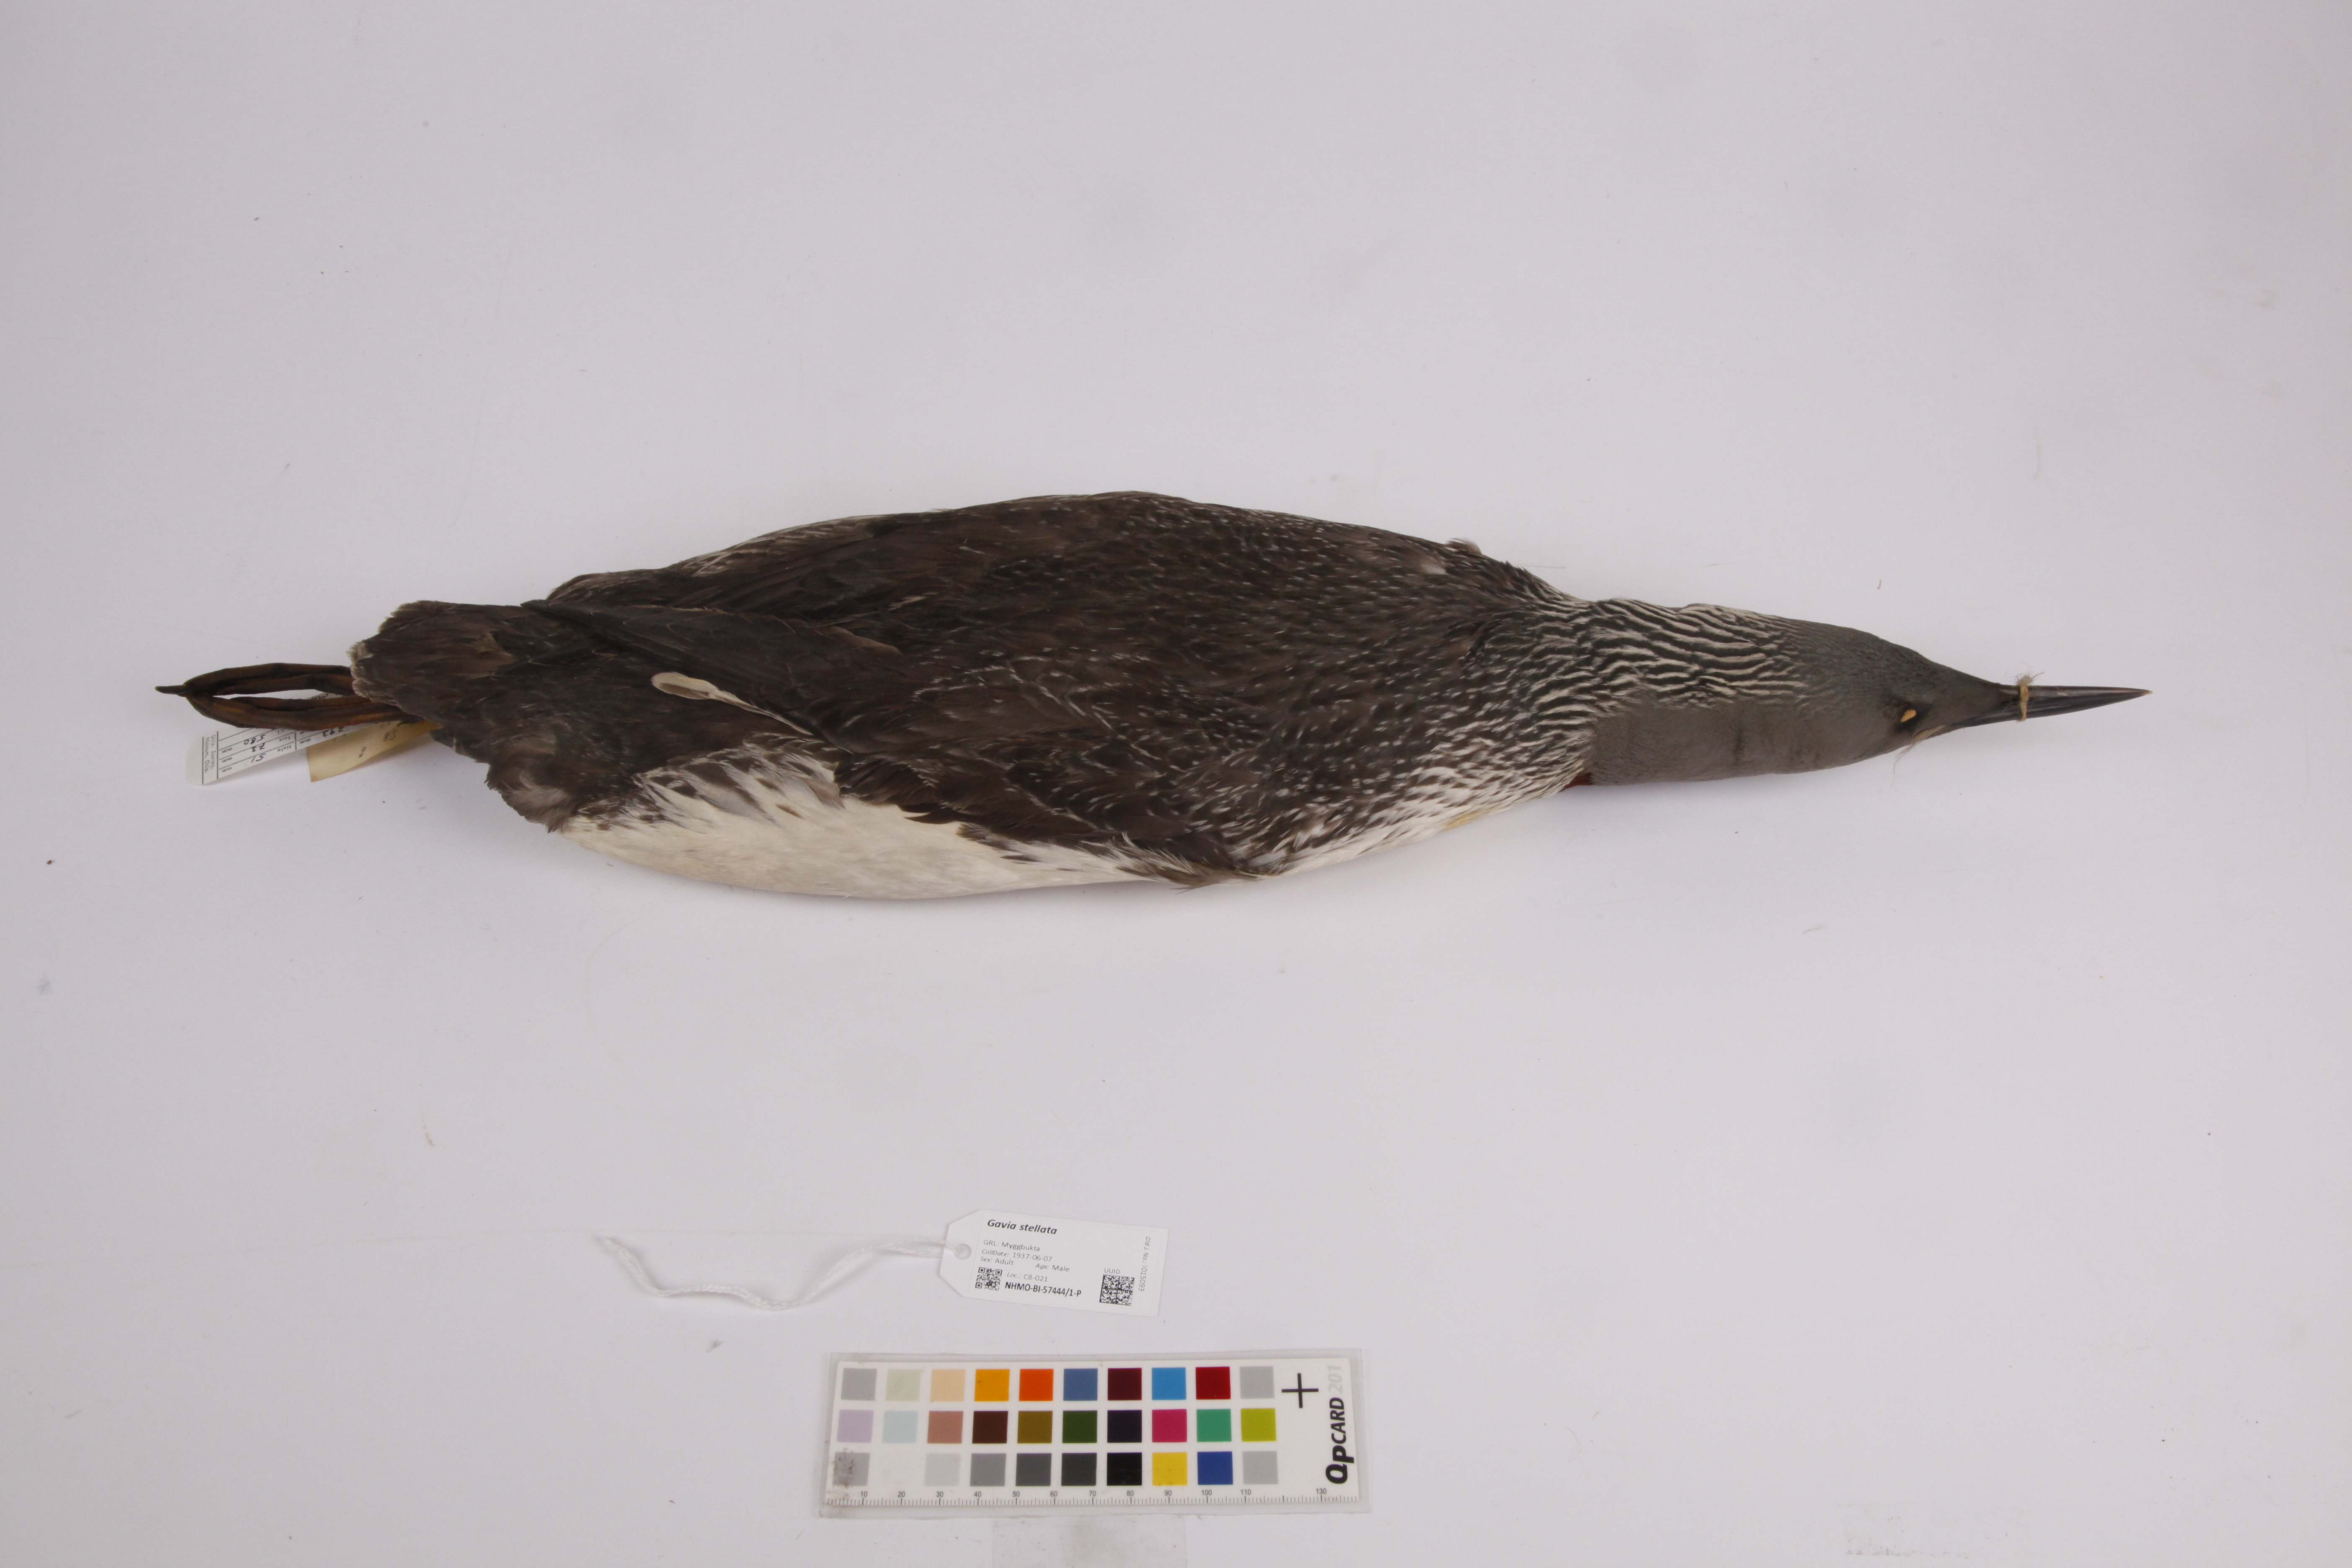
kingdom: Animalia
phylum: Chordata
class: Aves
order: Gaviiformes
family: Gaviidae
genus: Gavia
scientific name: Gavia stellata
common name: Red-throated loon
